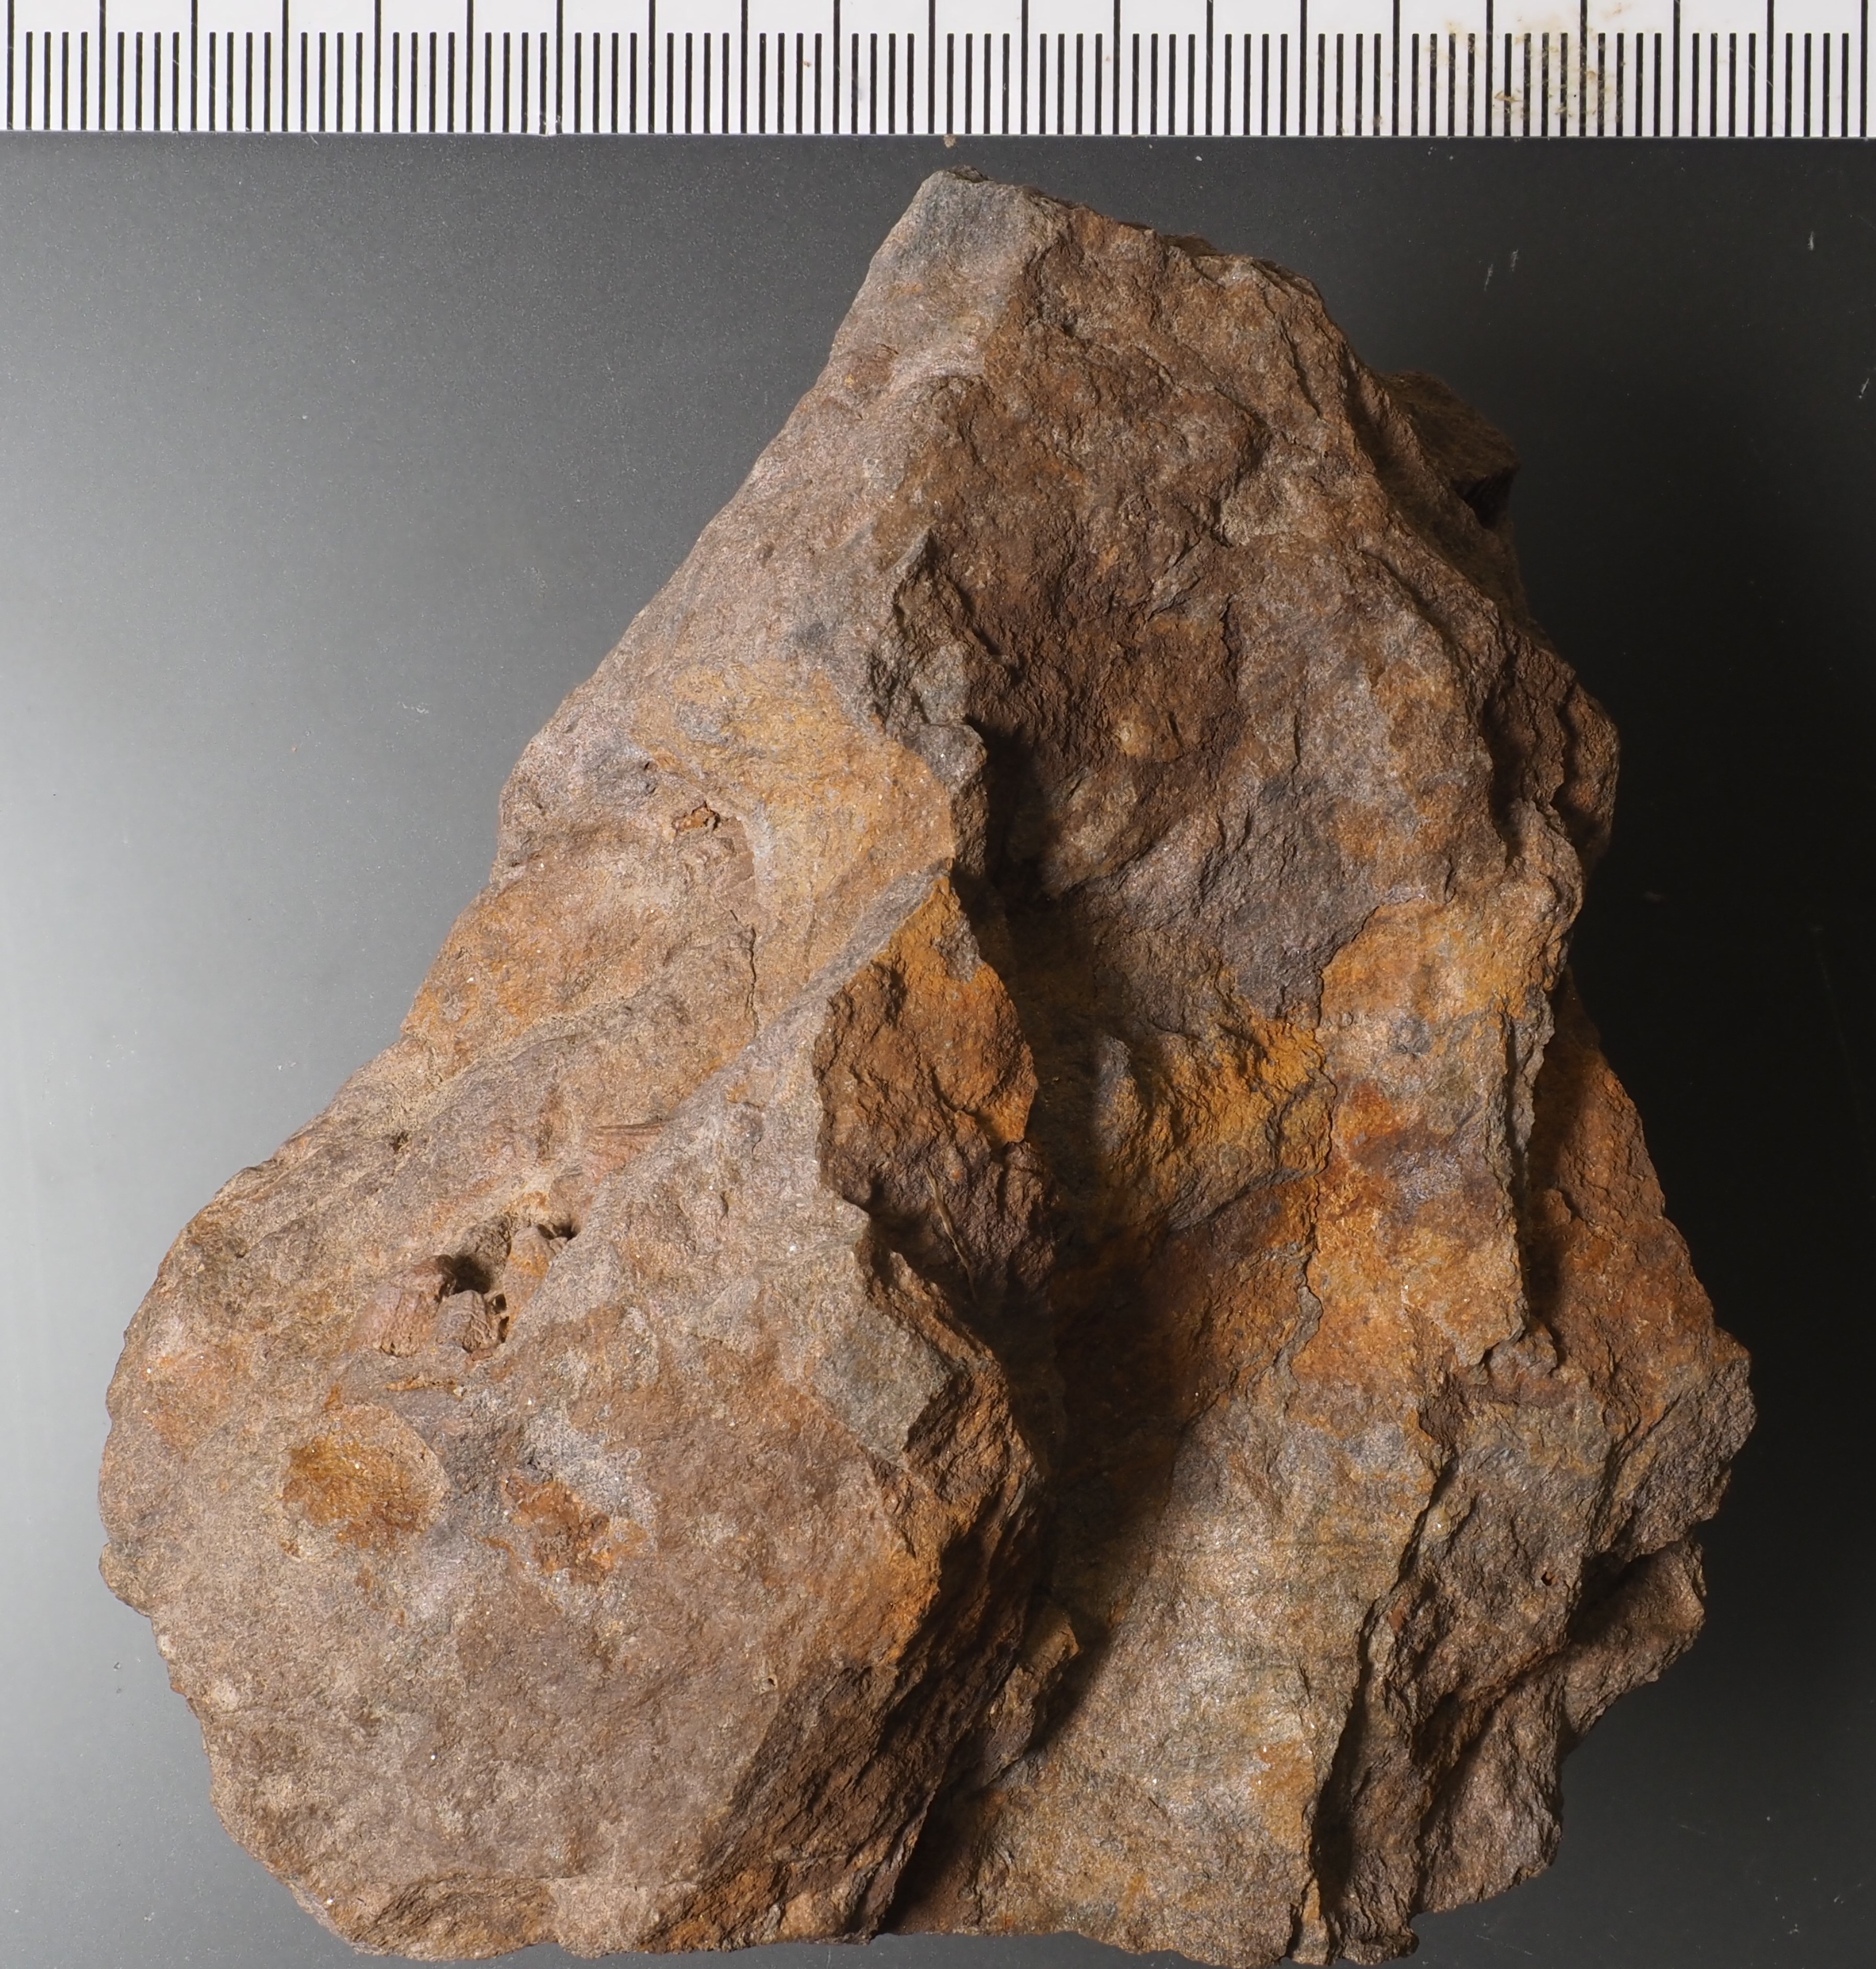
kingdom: Animalia
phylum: Cnidaria
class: Anthozoa
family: Favositidae
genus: Kerforneidictyum
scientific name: Kerforneidictyum
